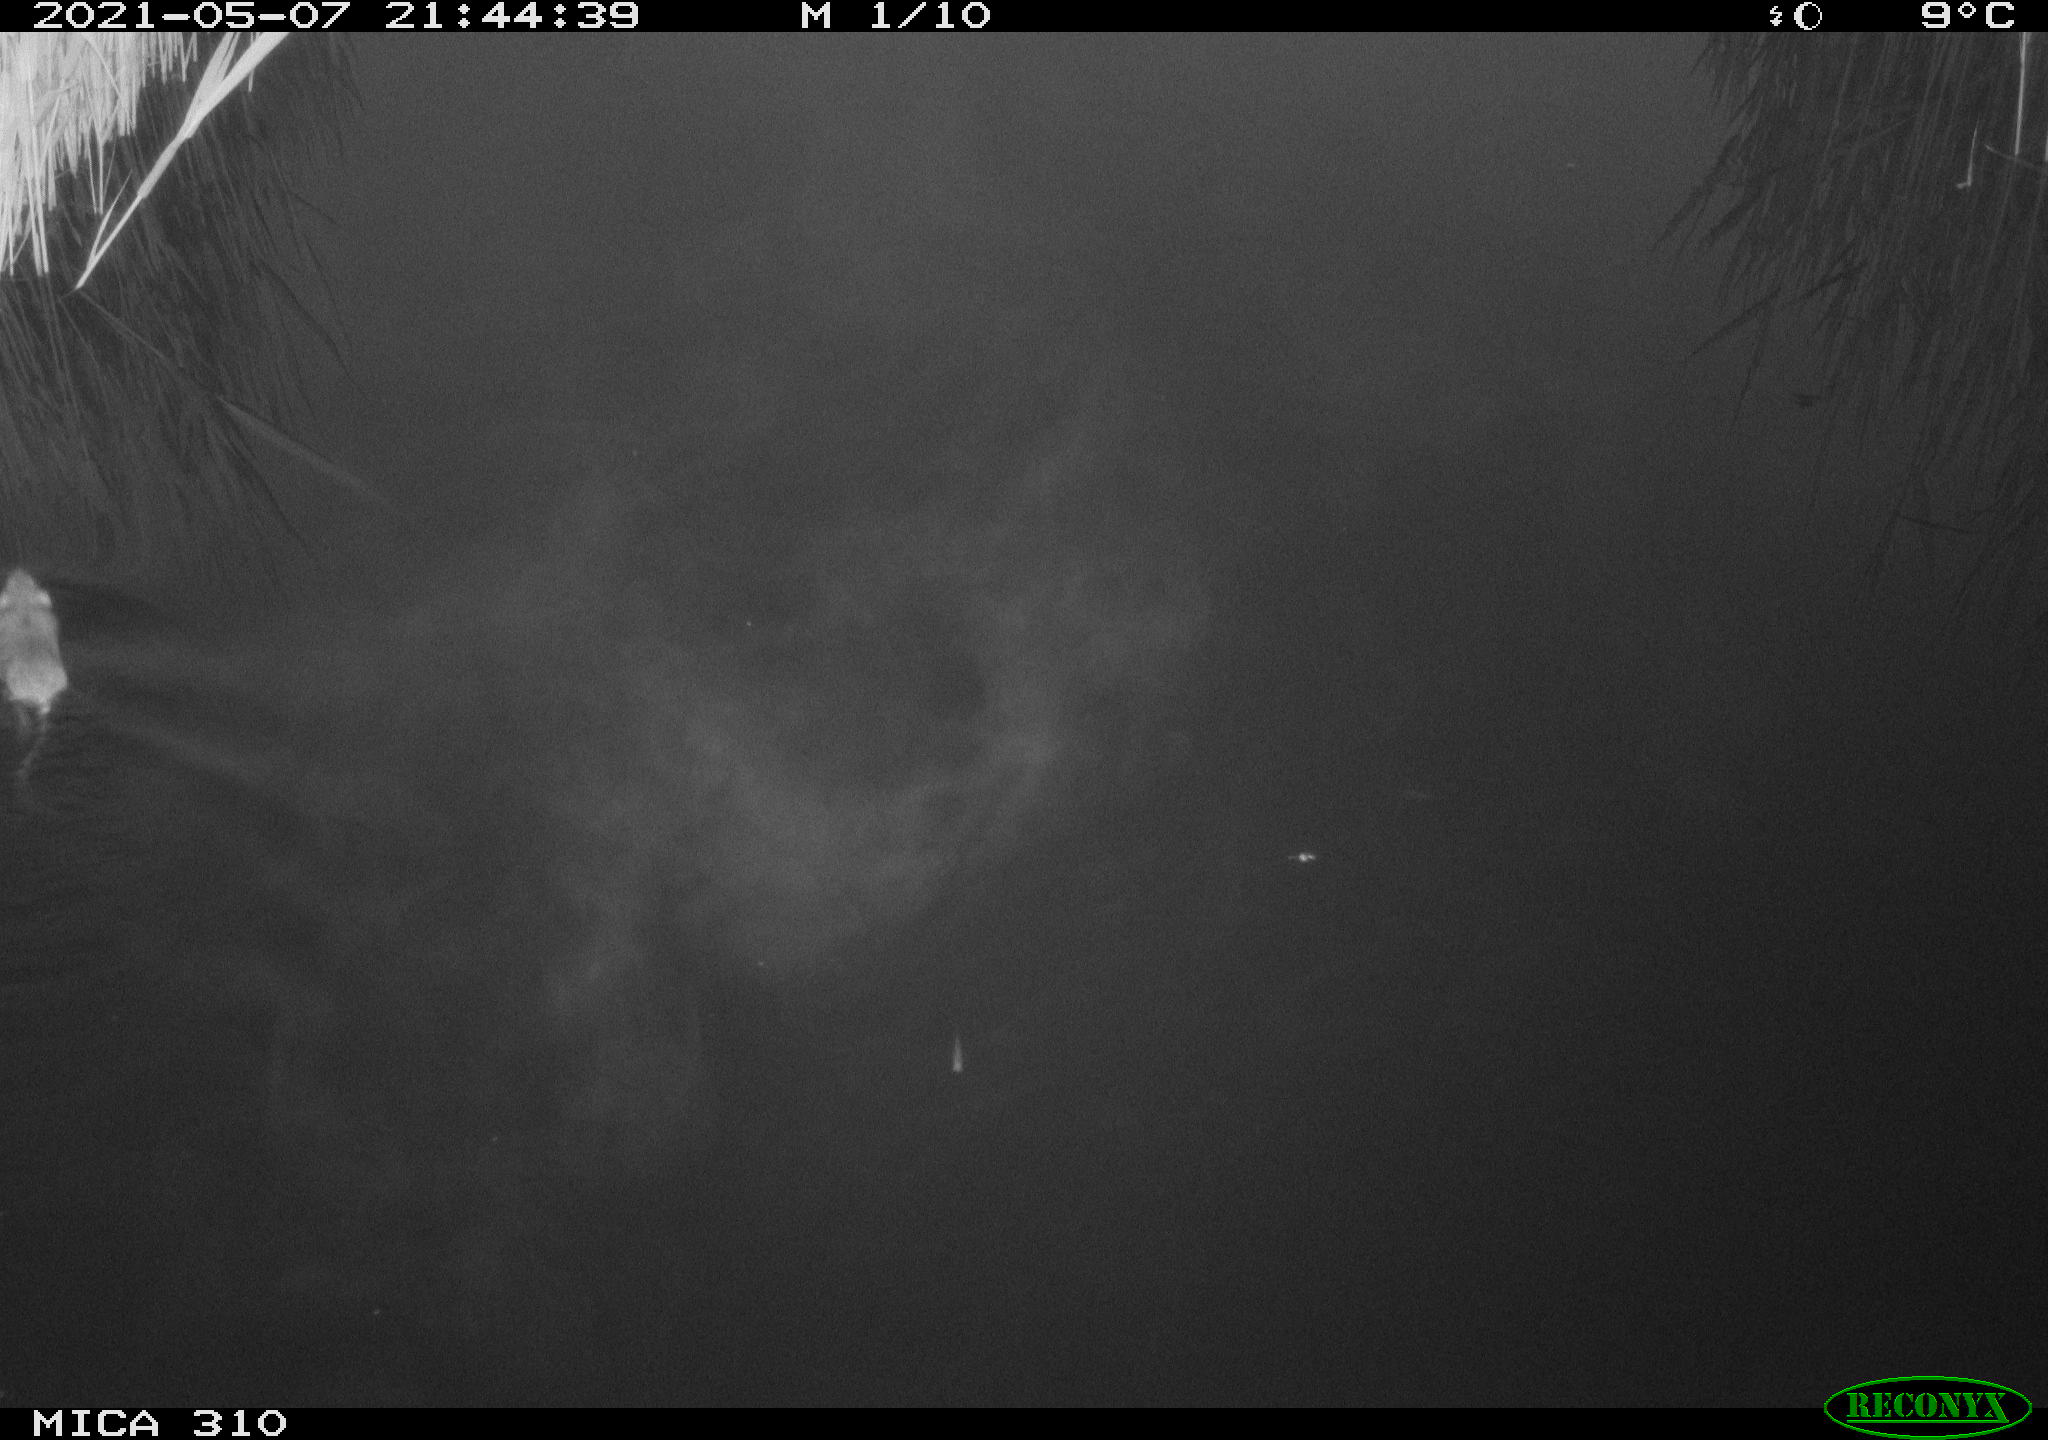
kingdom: Animalia
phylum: Chordata
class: Mammalia
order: Rodentia
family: Muridae
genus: Rattus
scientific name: Rattus norvegicus
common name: Brown rat
